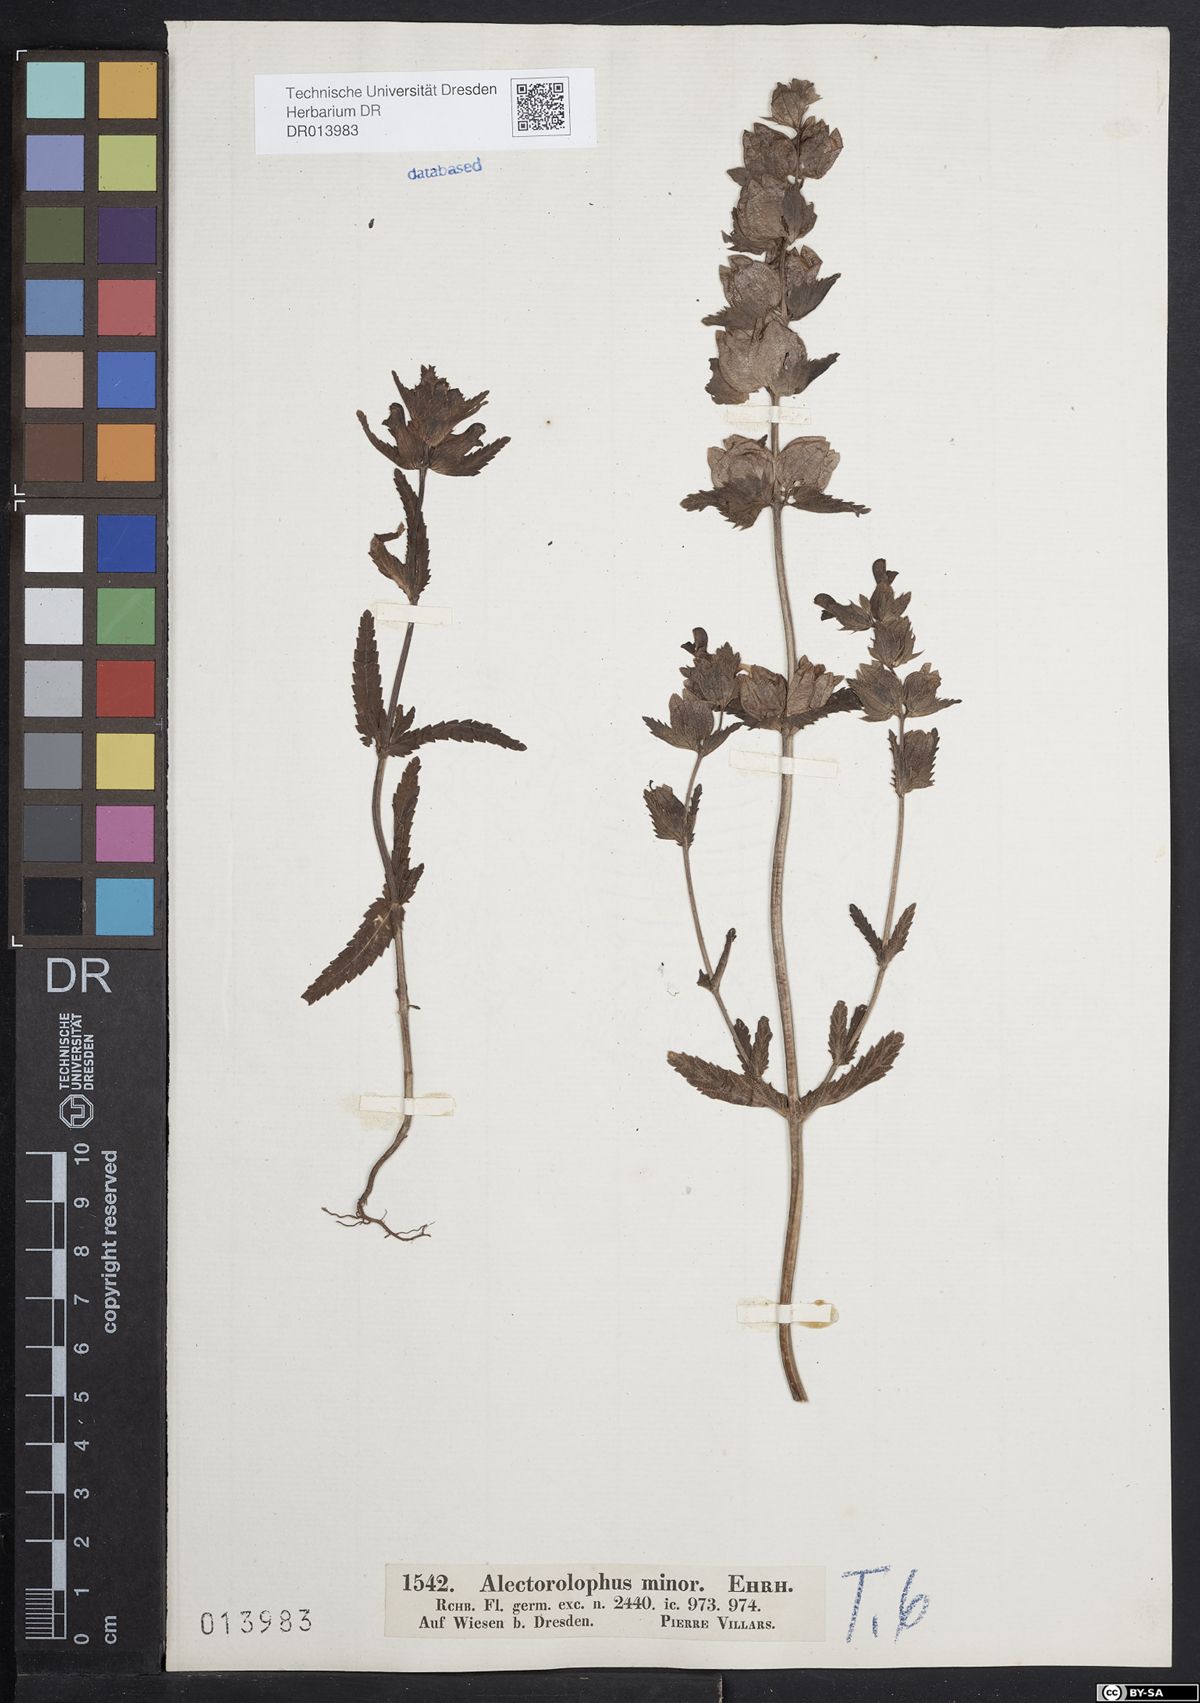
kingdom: Plantae
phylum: Tracheophyta
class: Magnoliopsida
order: Lamiales
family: Orobanchaceae
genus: Rhinanthus
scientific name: Rhinanthus minor
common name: Yellow-rattle
